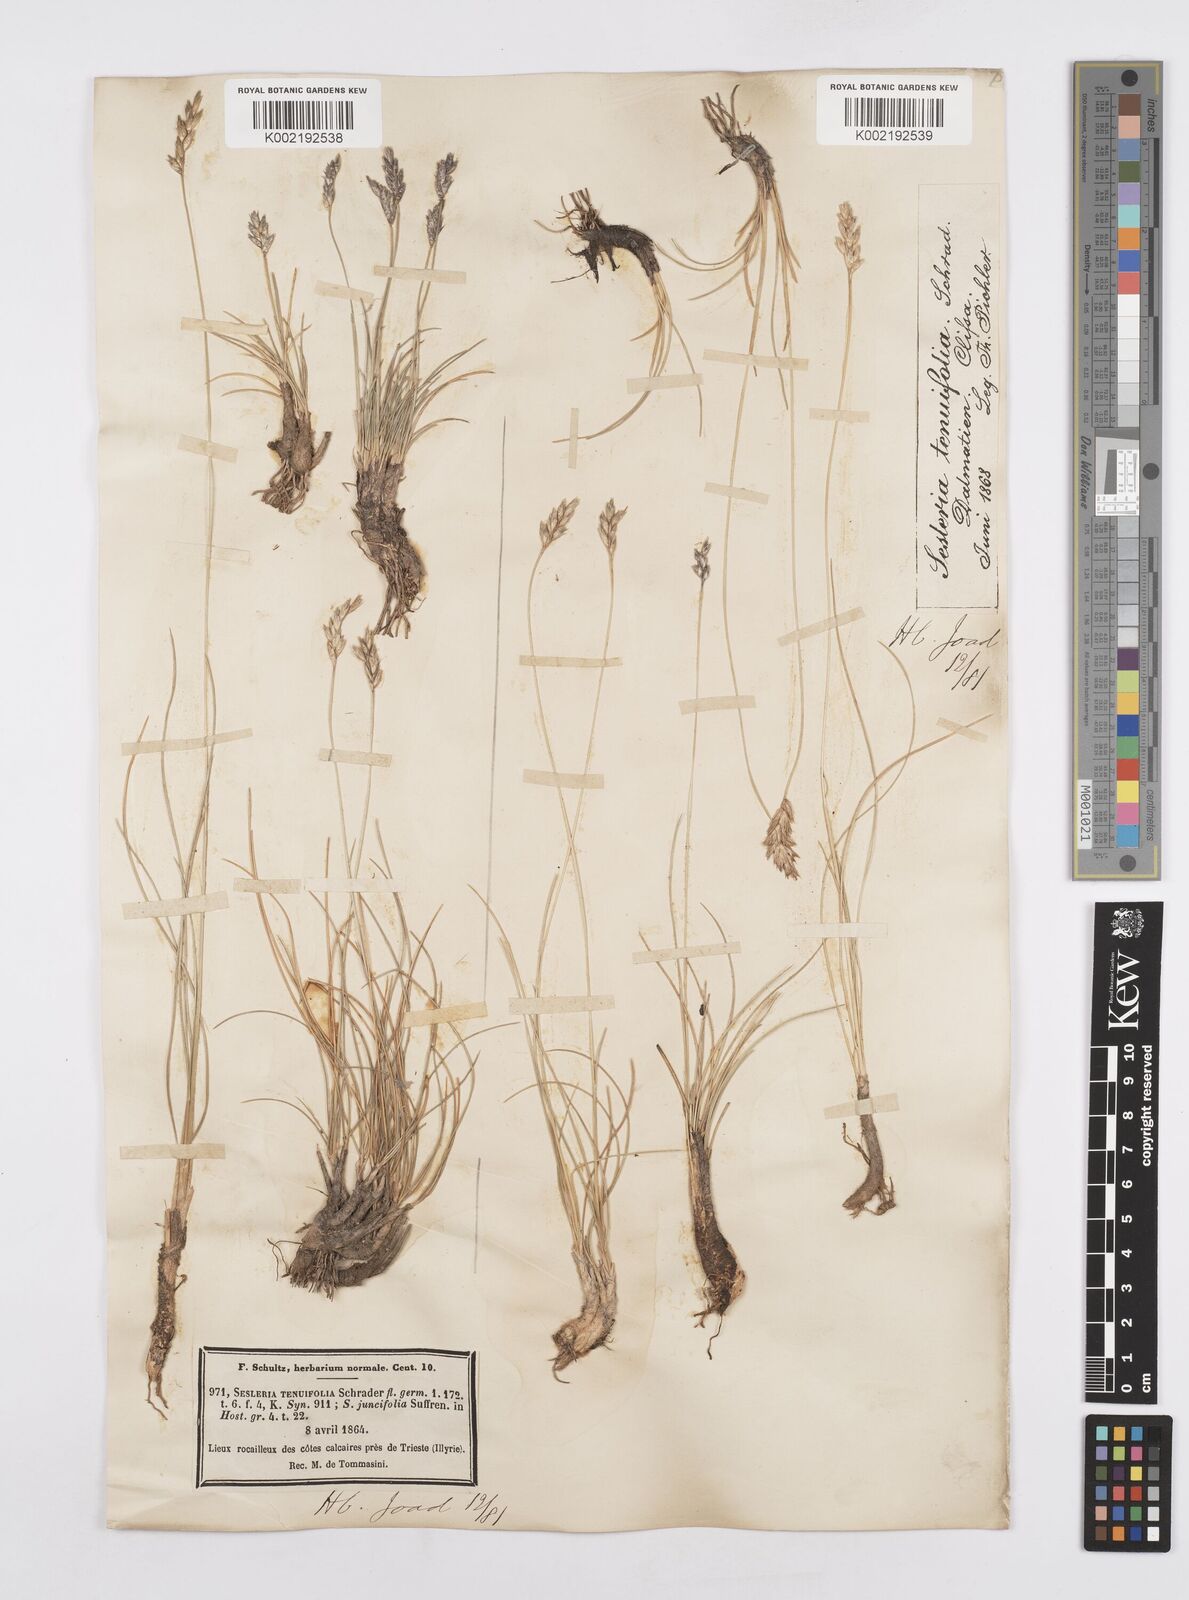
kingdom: Plantae
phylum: Tracheophyta
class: Liliopsida
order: Poales
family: Poaceae
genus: Sesleria
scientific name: Sesleria juncifolia
